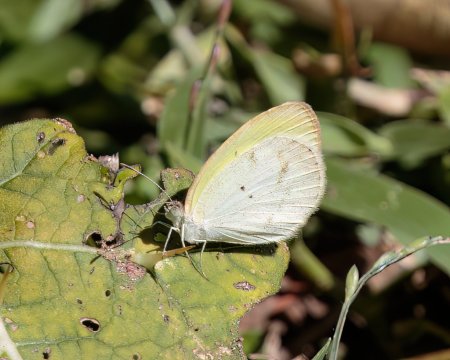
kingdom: Animalia
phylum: Arthropoda
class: Insecta
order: Lepidoptera
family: Pieridae
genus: Eurema
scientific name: Eurema elathea
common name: Banded Yellow
